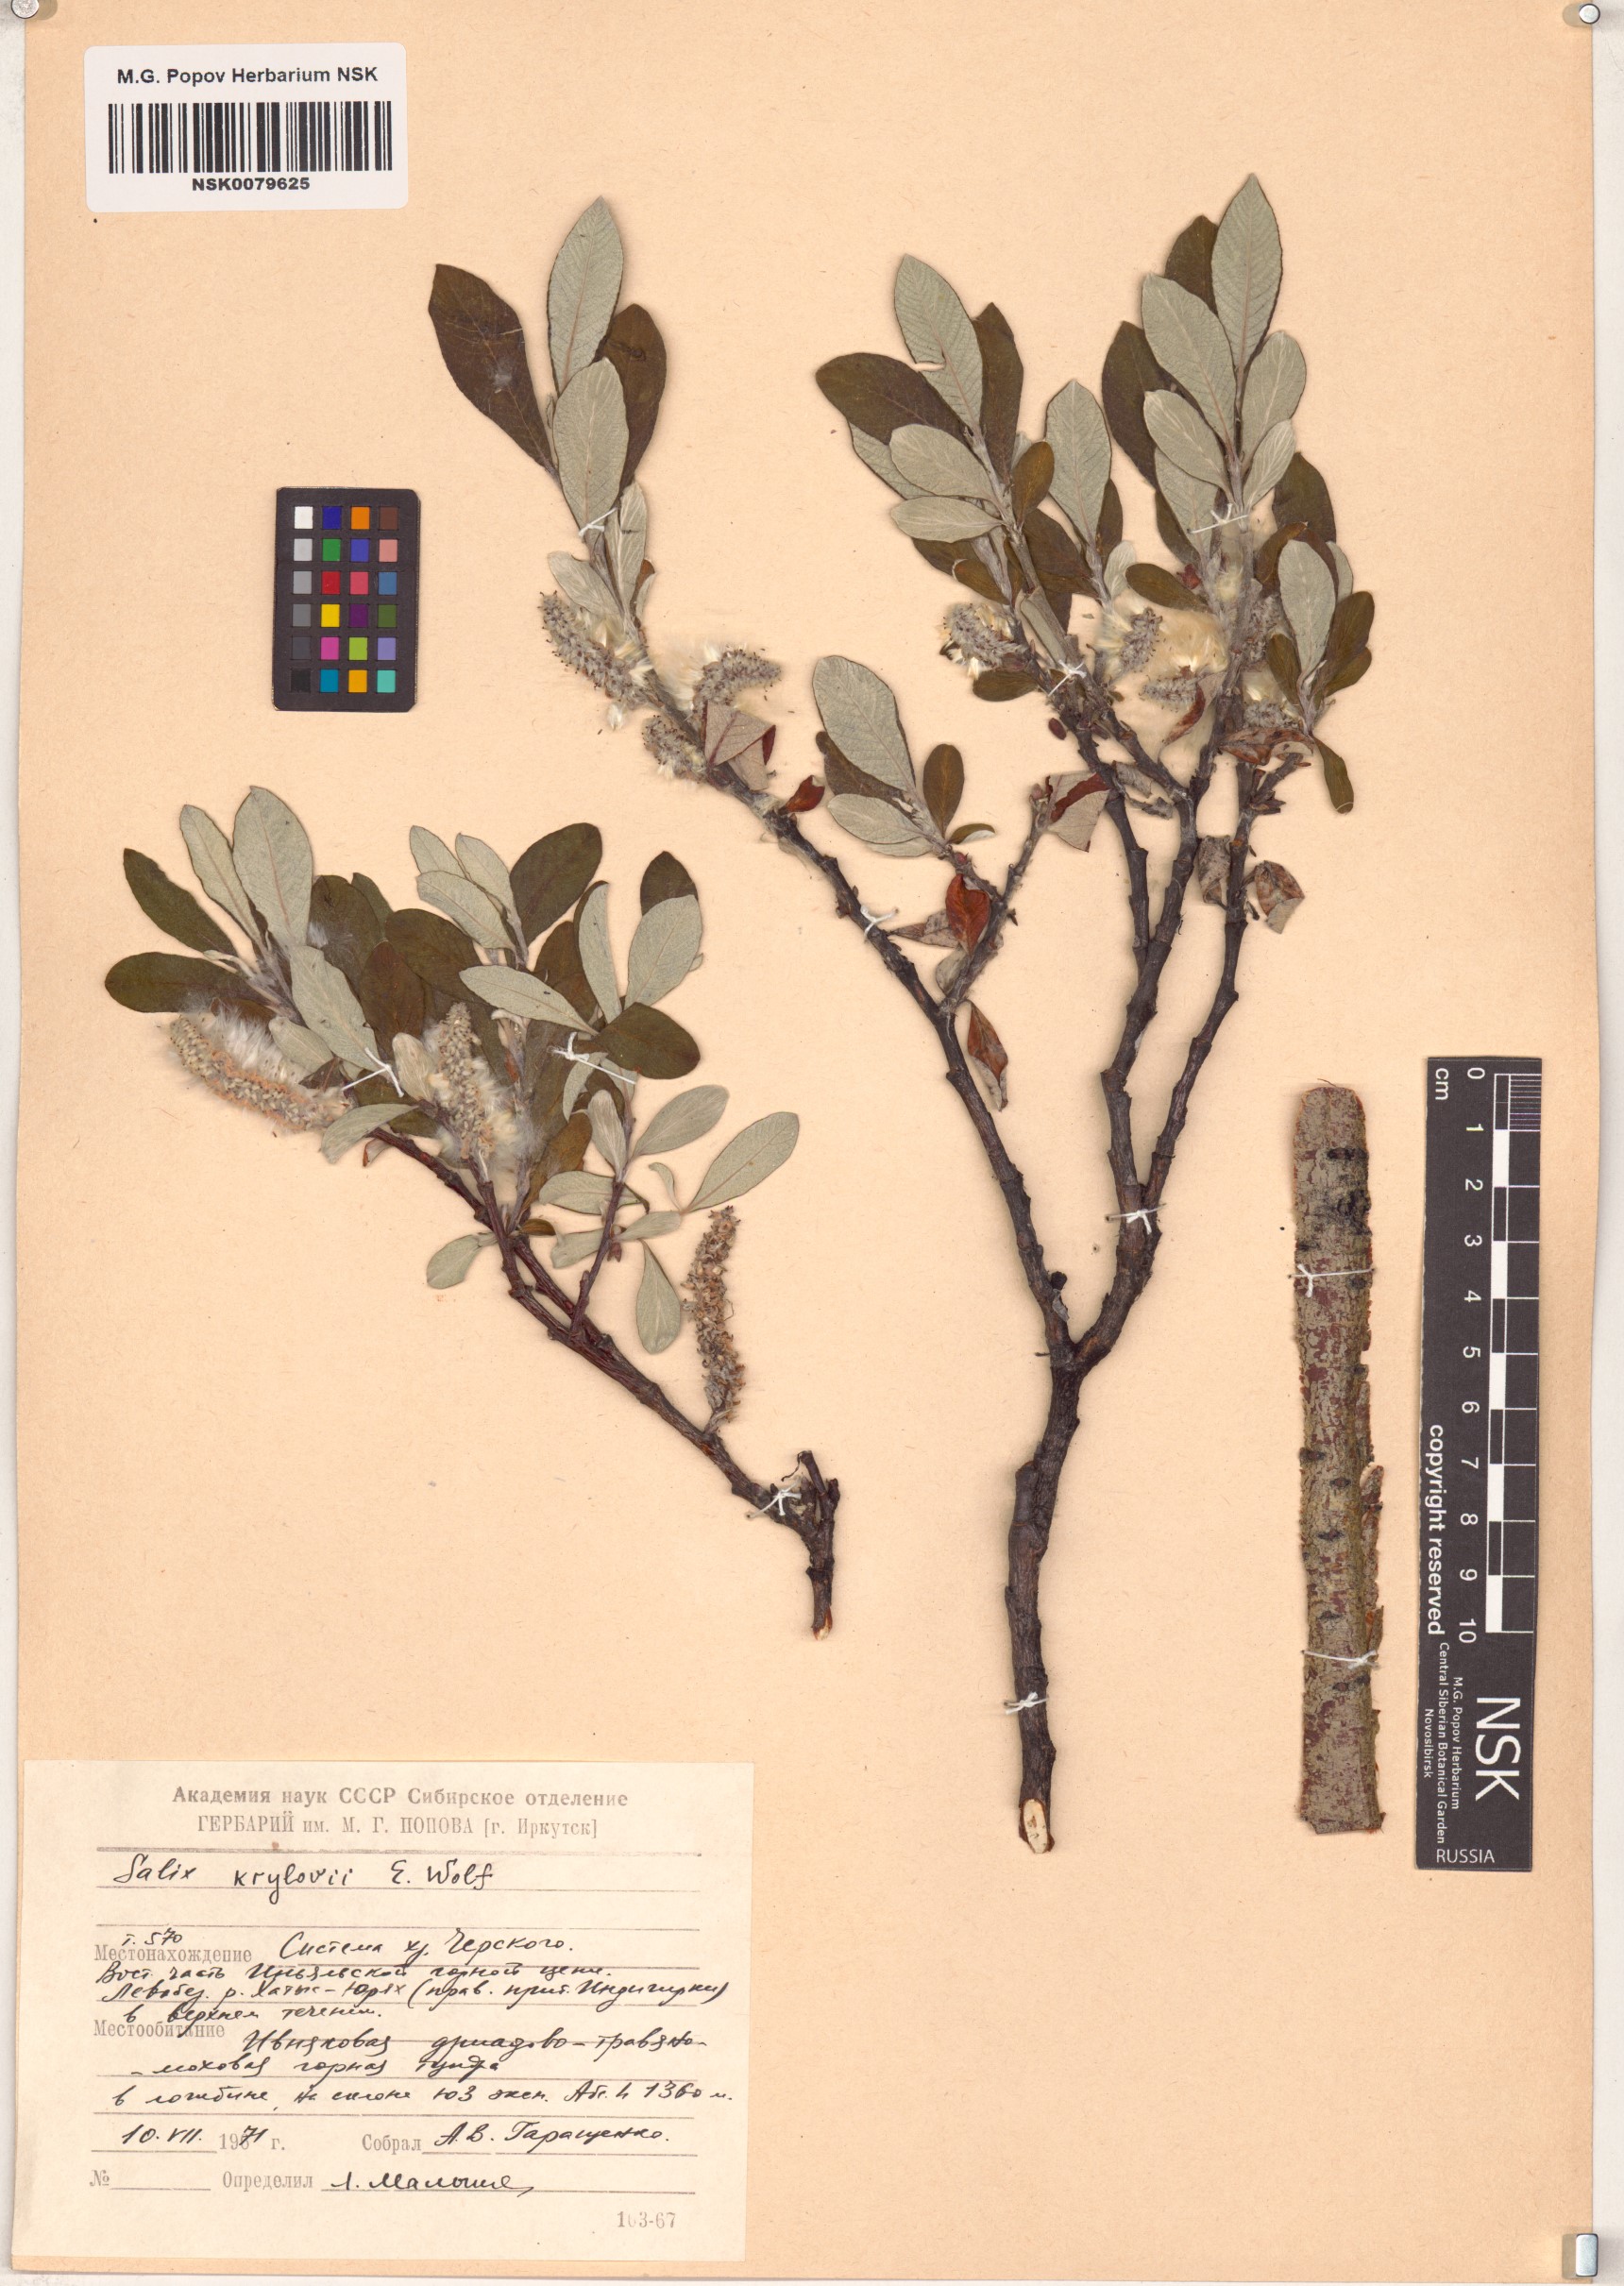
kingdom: Plantae
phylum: Tracheophyta
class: Magnoliopsida
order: Malpighiales
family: Salicaceae
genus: Salix
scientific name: Salix krylovii
